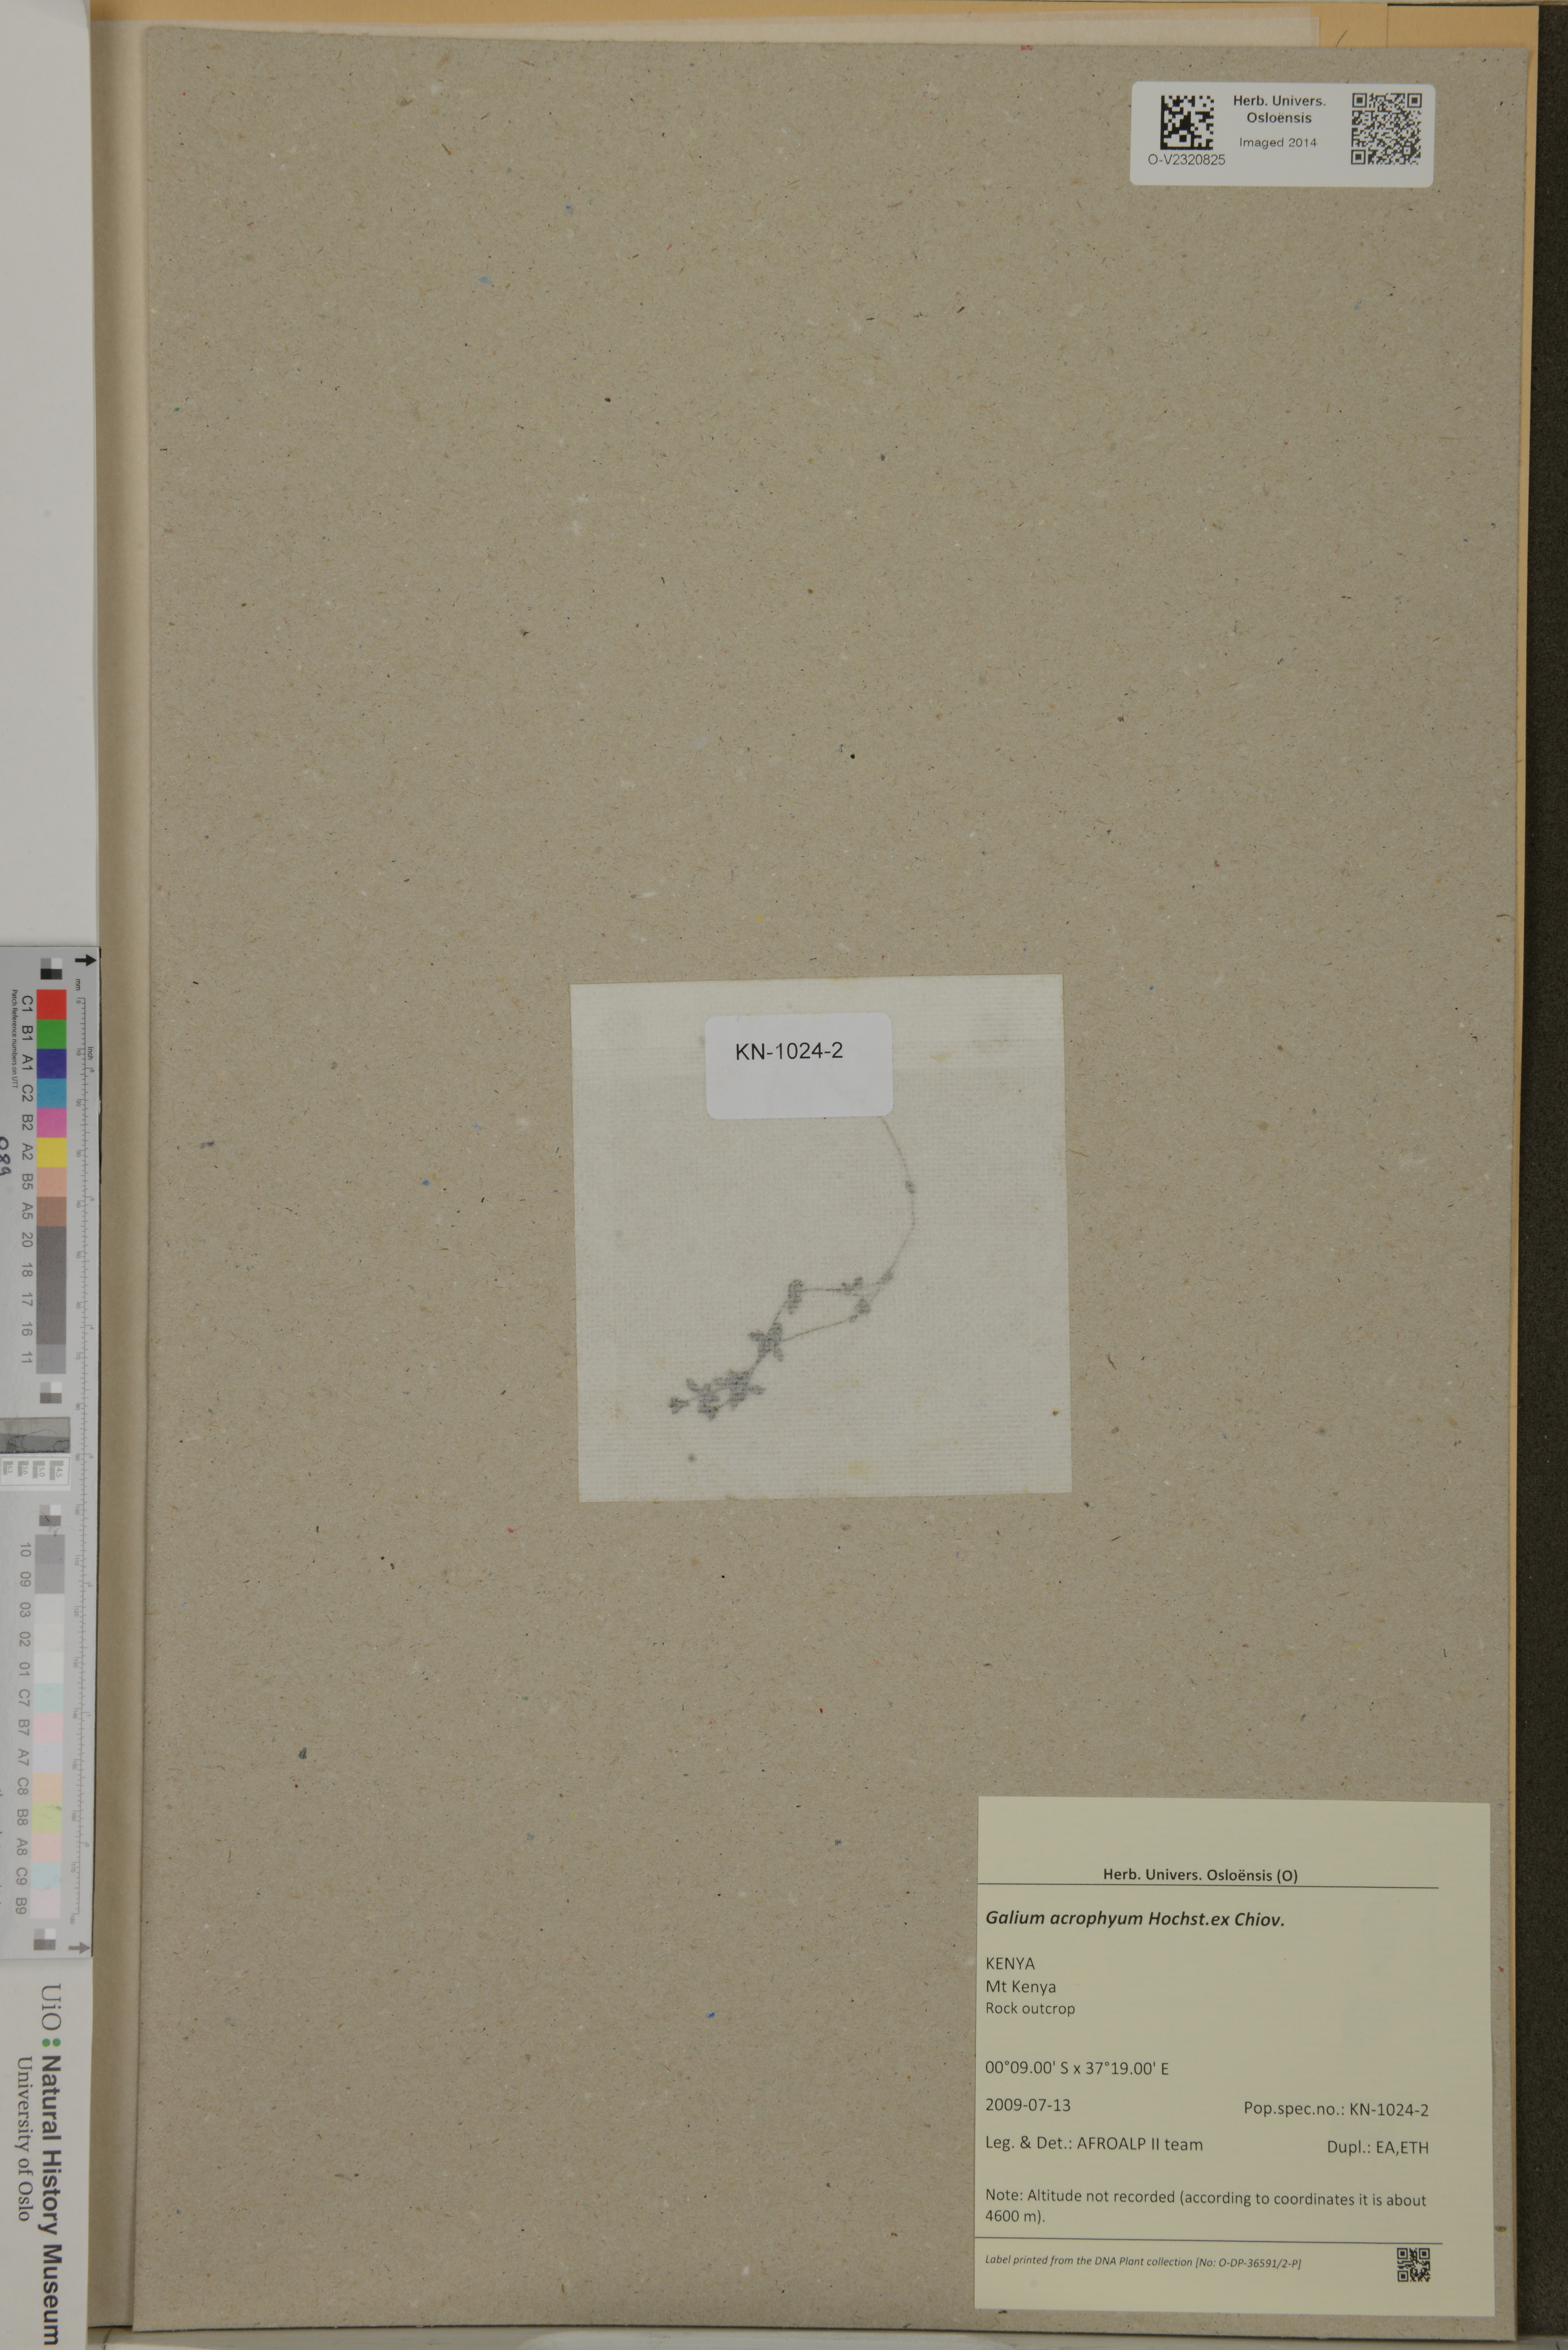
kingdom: Plantae
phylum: Tracheophyta
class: Magnoliopsida
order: Gentianales
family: Rubiaceae
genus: Galium
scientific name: Galium acrophyum
